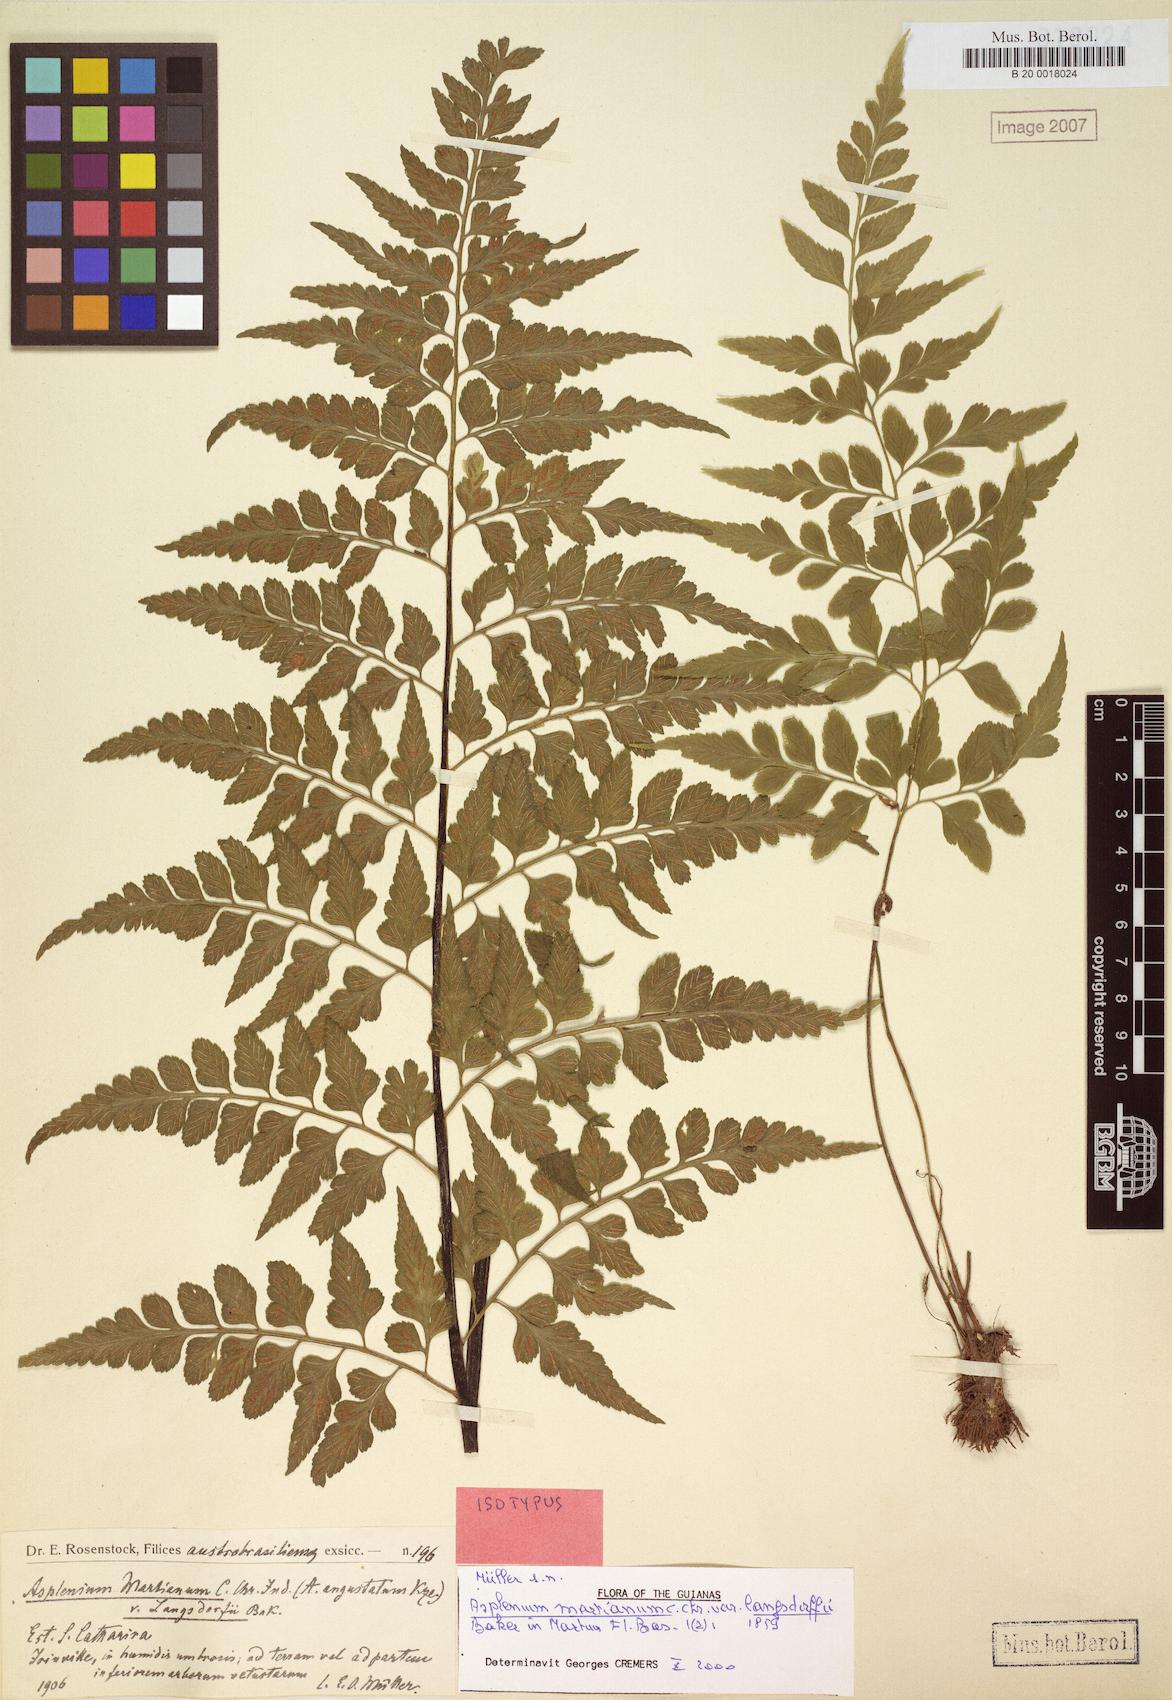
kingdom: Plantae
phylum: Tracheophyta
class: Polypodiopsida
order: Polypodiales
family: Aspleniaceae
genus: Asplenium
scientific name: Asplenium martianum
